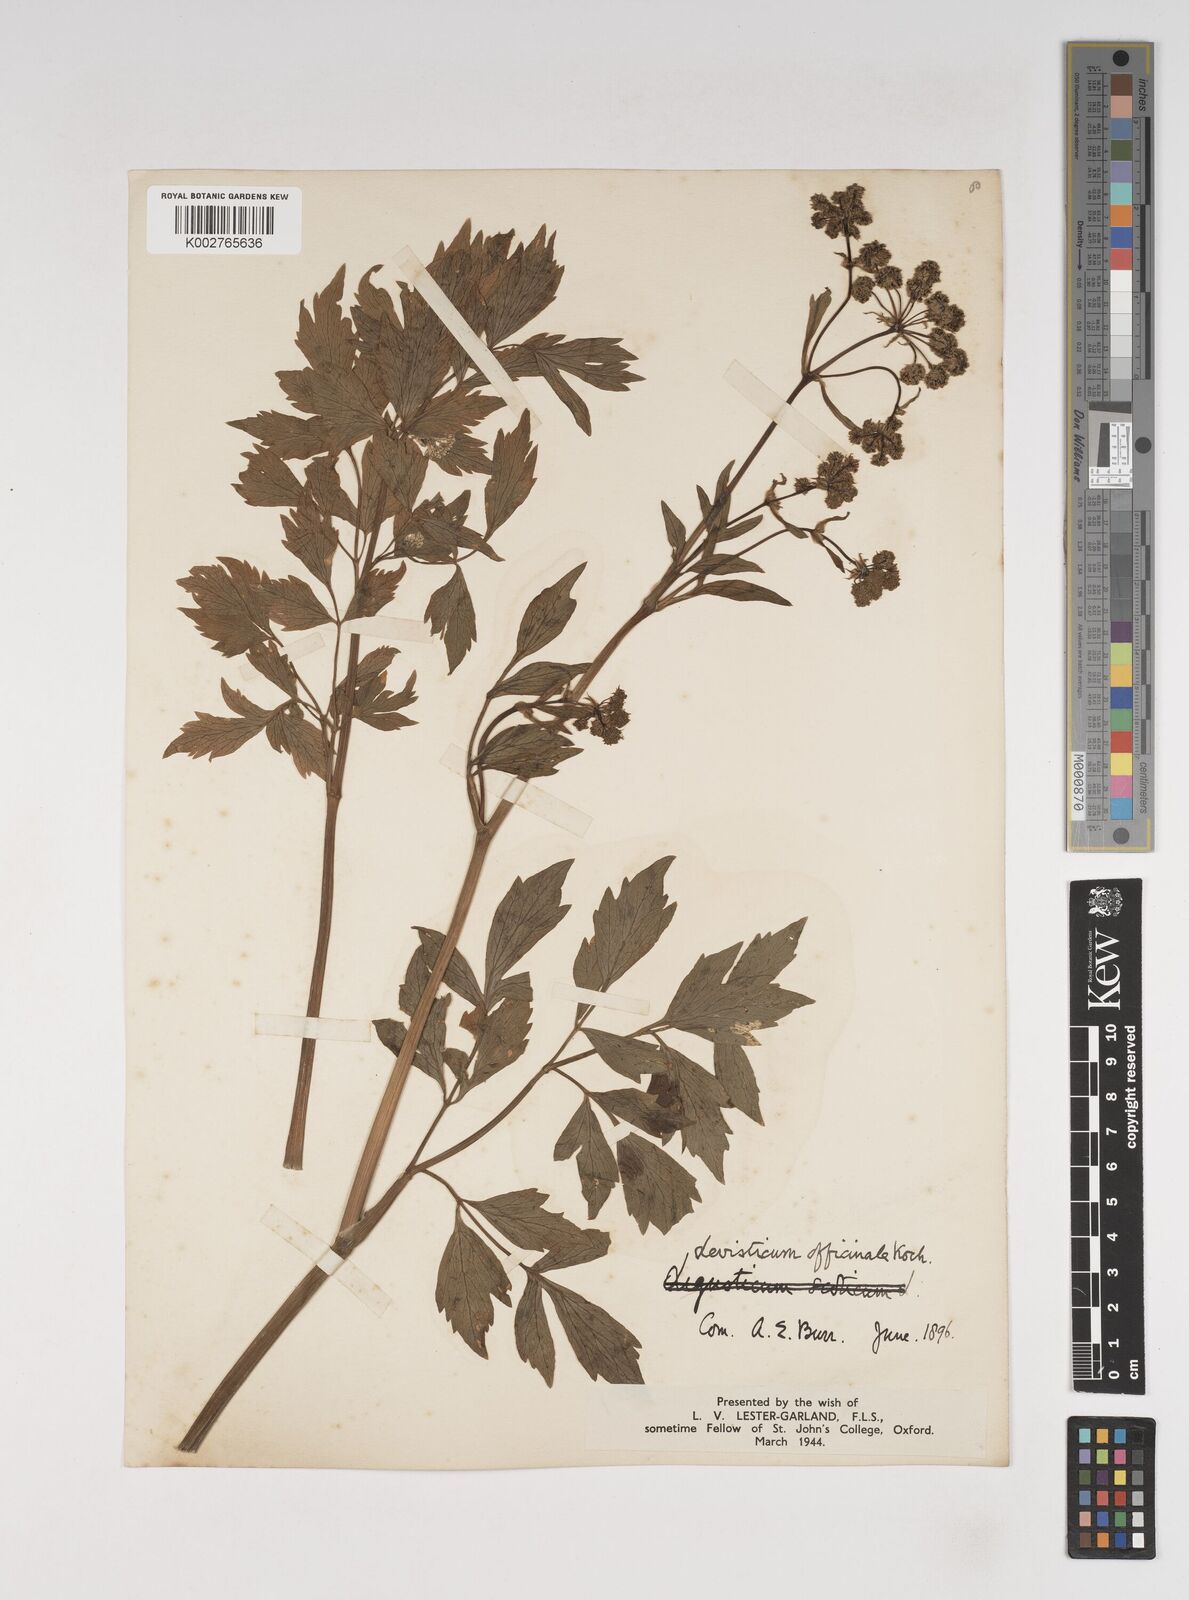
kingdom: Plantae
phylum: Tracheophyta
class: Magnoliopsida
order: Apiales
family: Apiaceae
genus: Levisticum
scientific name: Levisticum officinale
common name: Lovage
